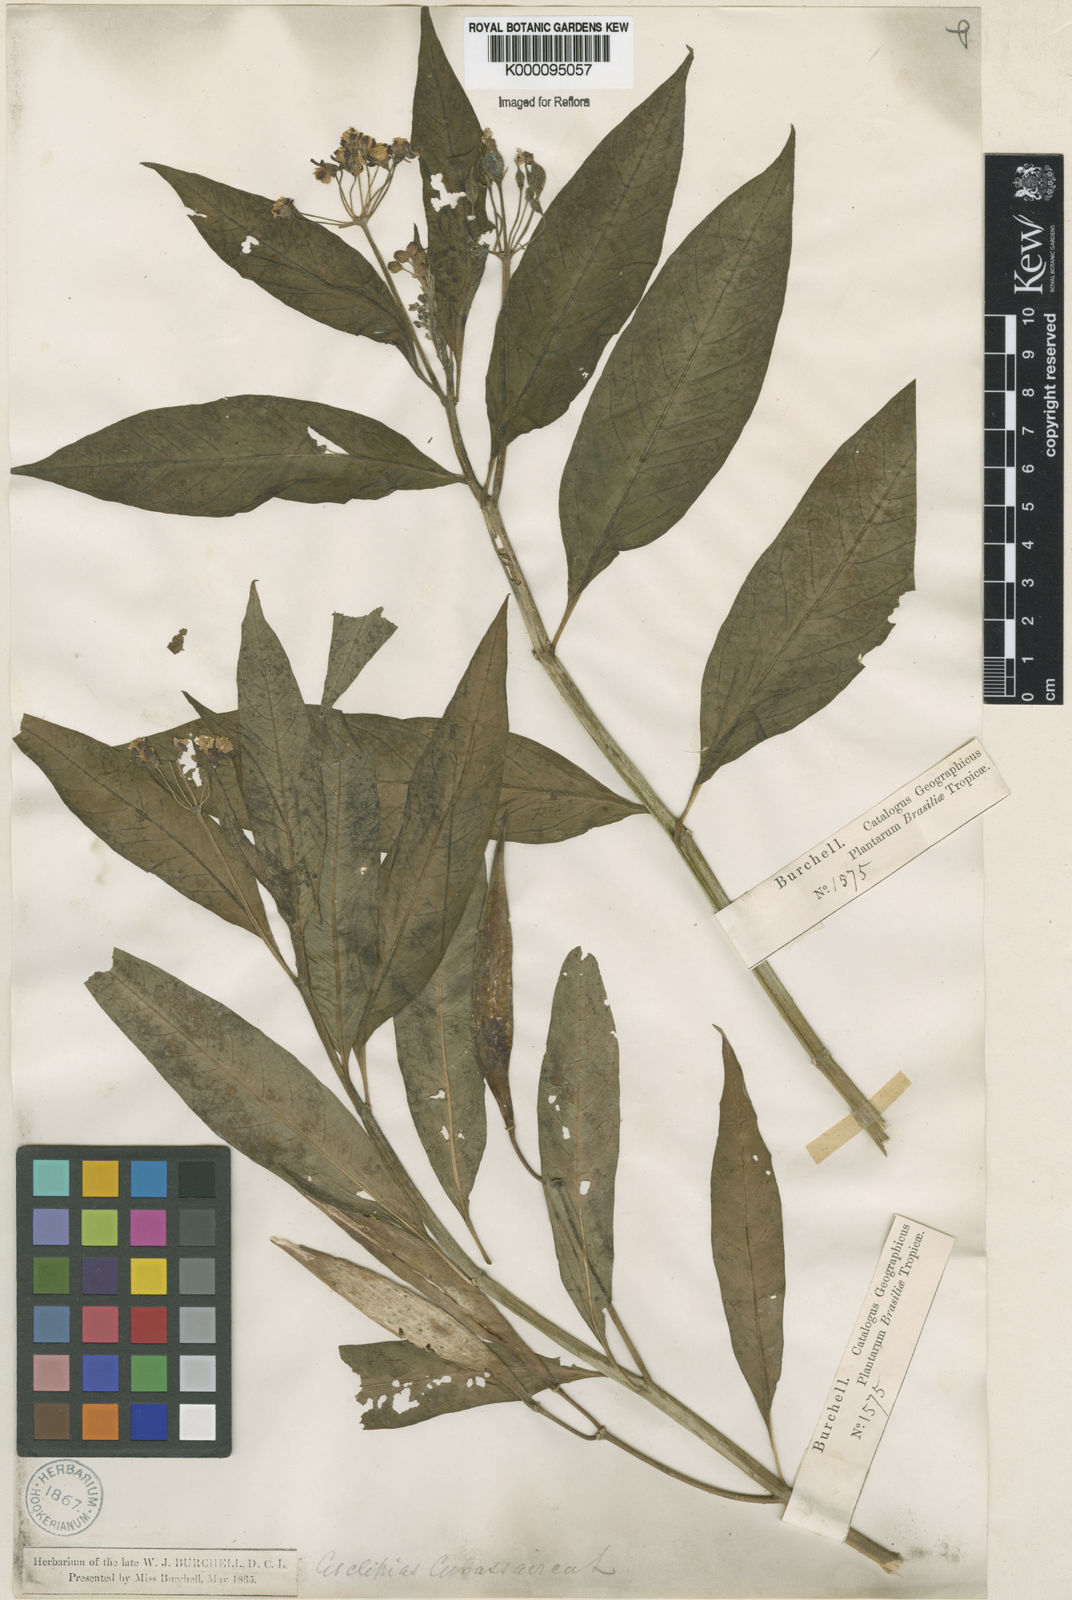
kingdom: Plantae
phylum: Tracheophyta
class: Magnoliopsida
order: Gentianales
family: Apocynaceae
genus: Asclepias
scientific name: Asclepias curassavica
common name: Bloodflower
